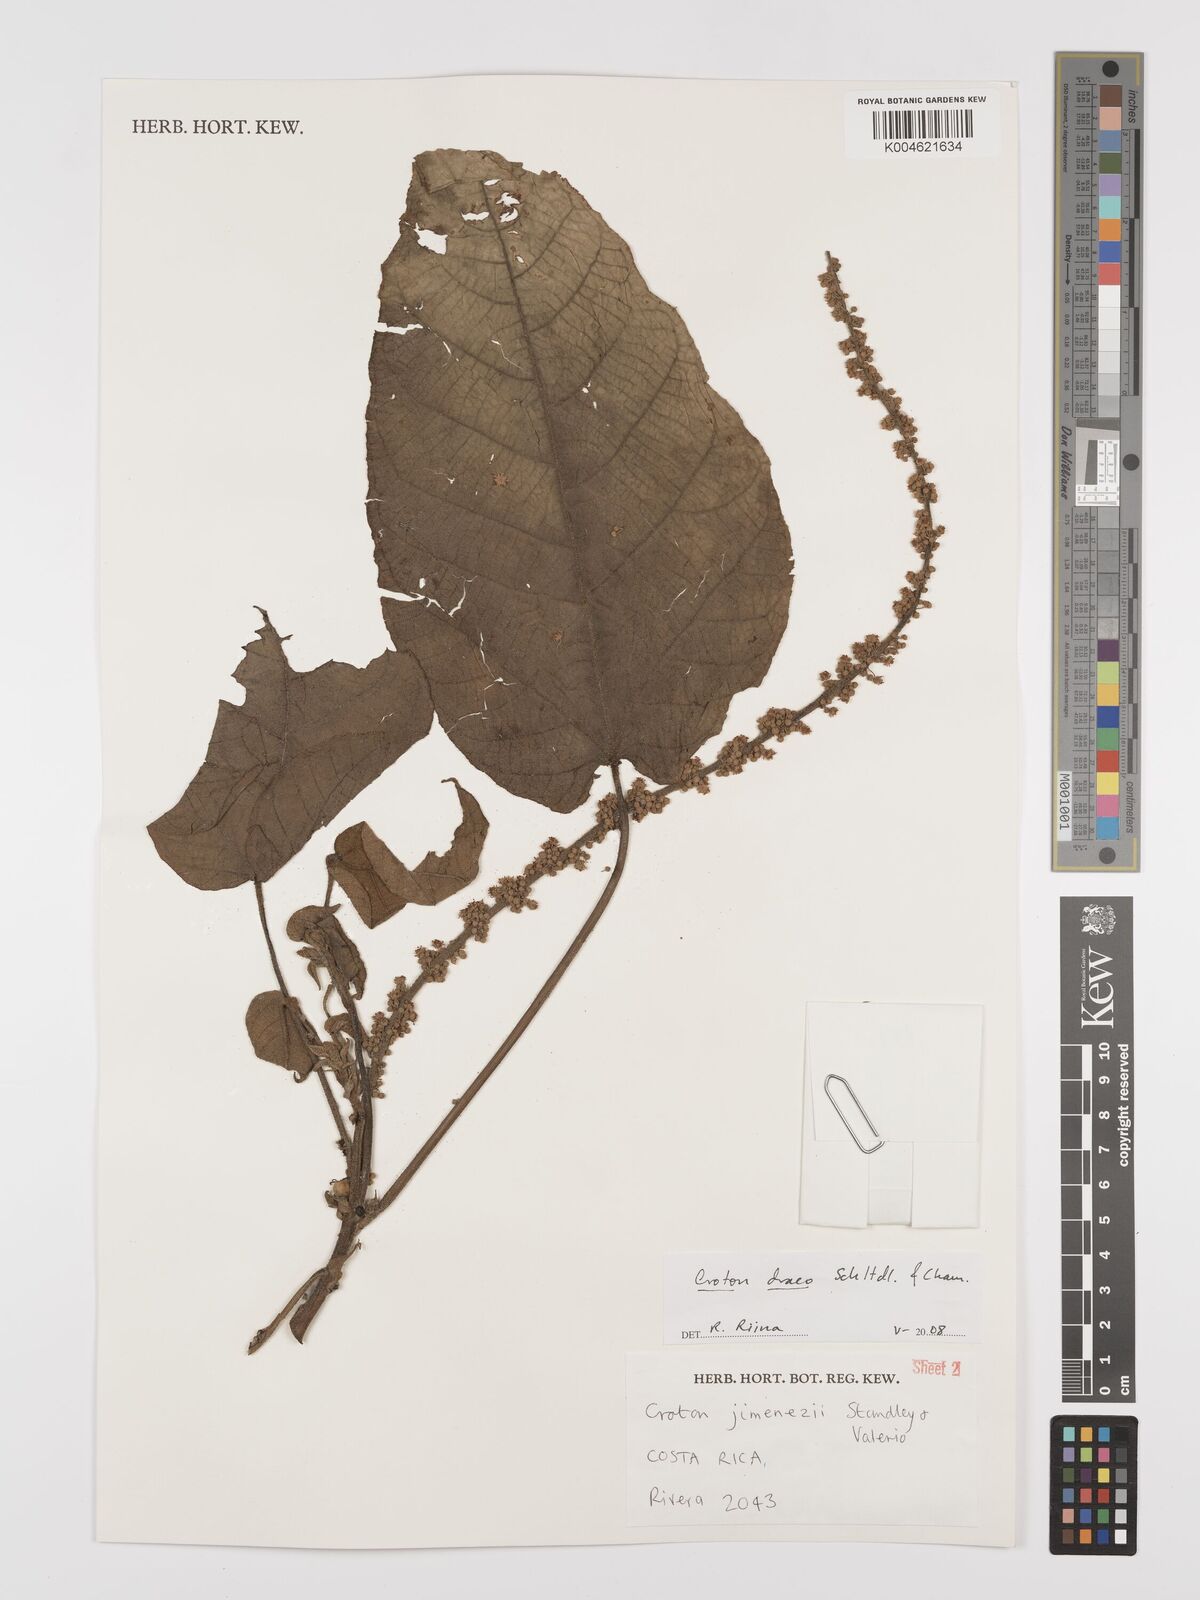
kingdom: Plantae
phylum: Tracheophyta
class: Magnoliopsida
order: Malpighiales
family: Euphorbiaceae
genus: Croton
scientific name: Croton draco
